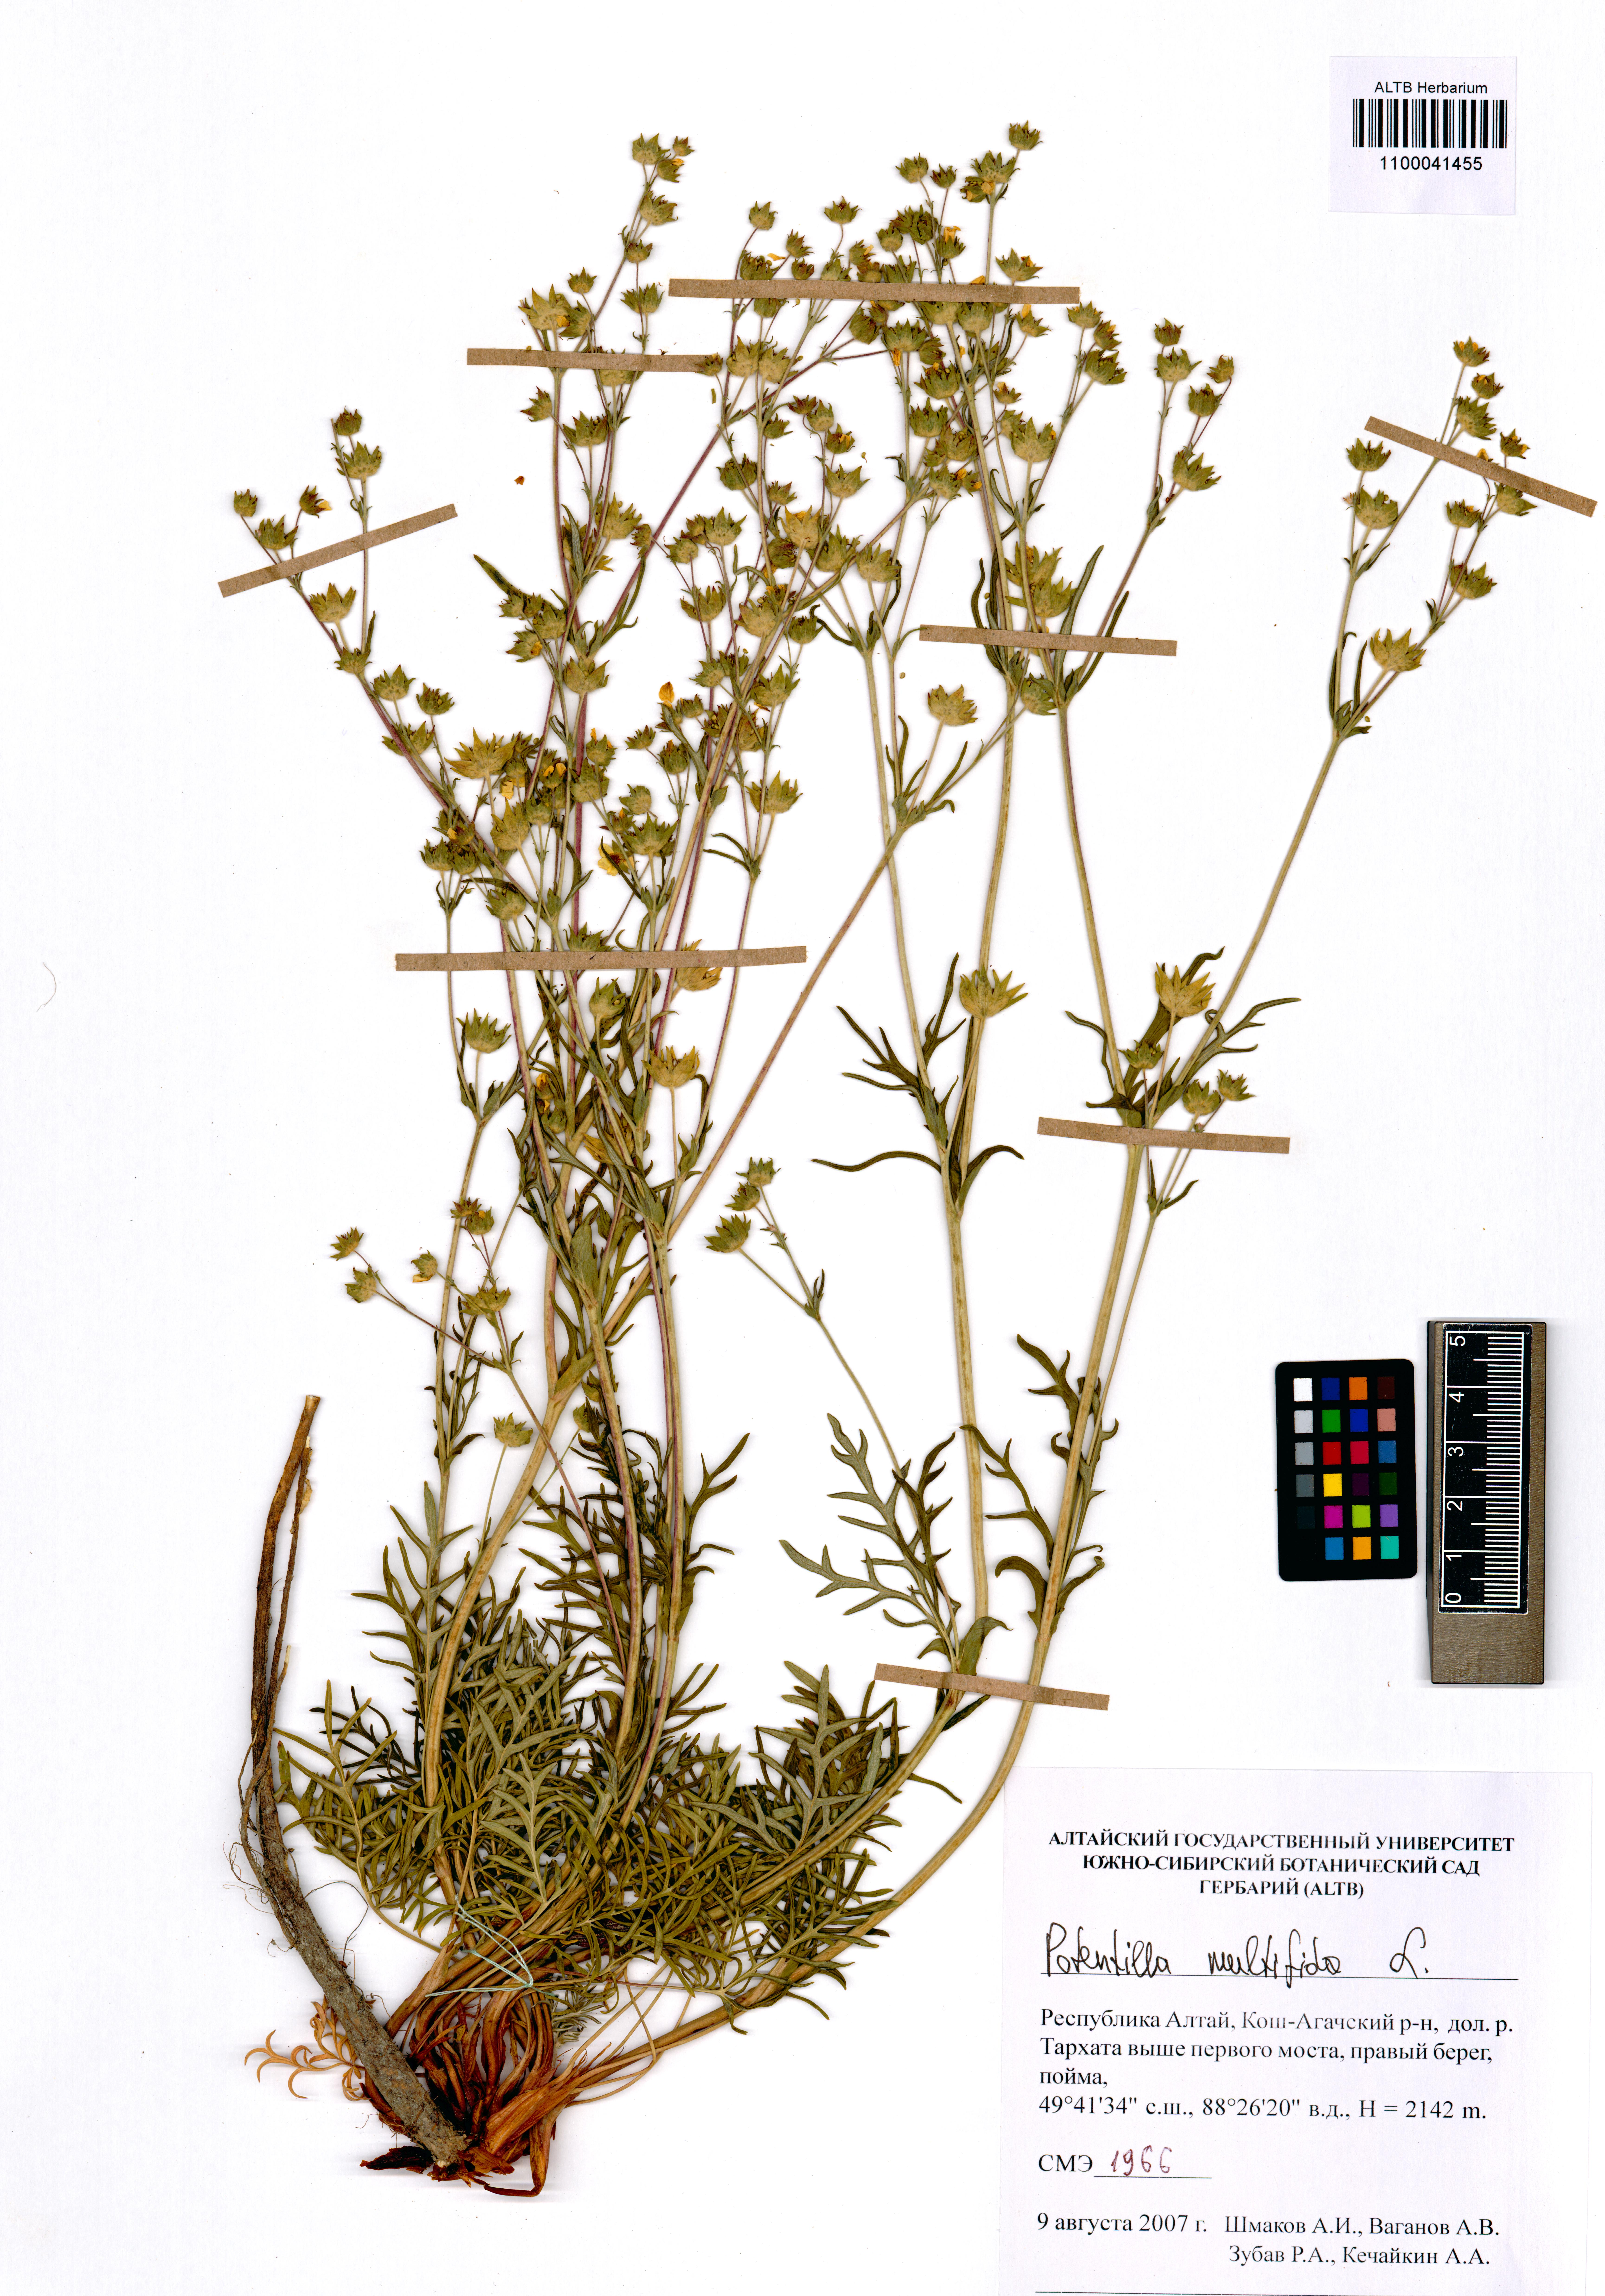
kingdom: Plantae
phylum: Tracheophyta
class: Magnoliopsida
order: Rosales
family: Rosaceae
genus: Potentilla
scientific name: Potentilla multifida
